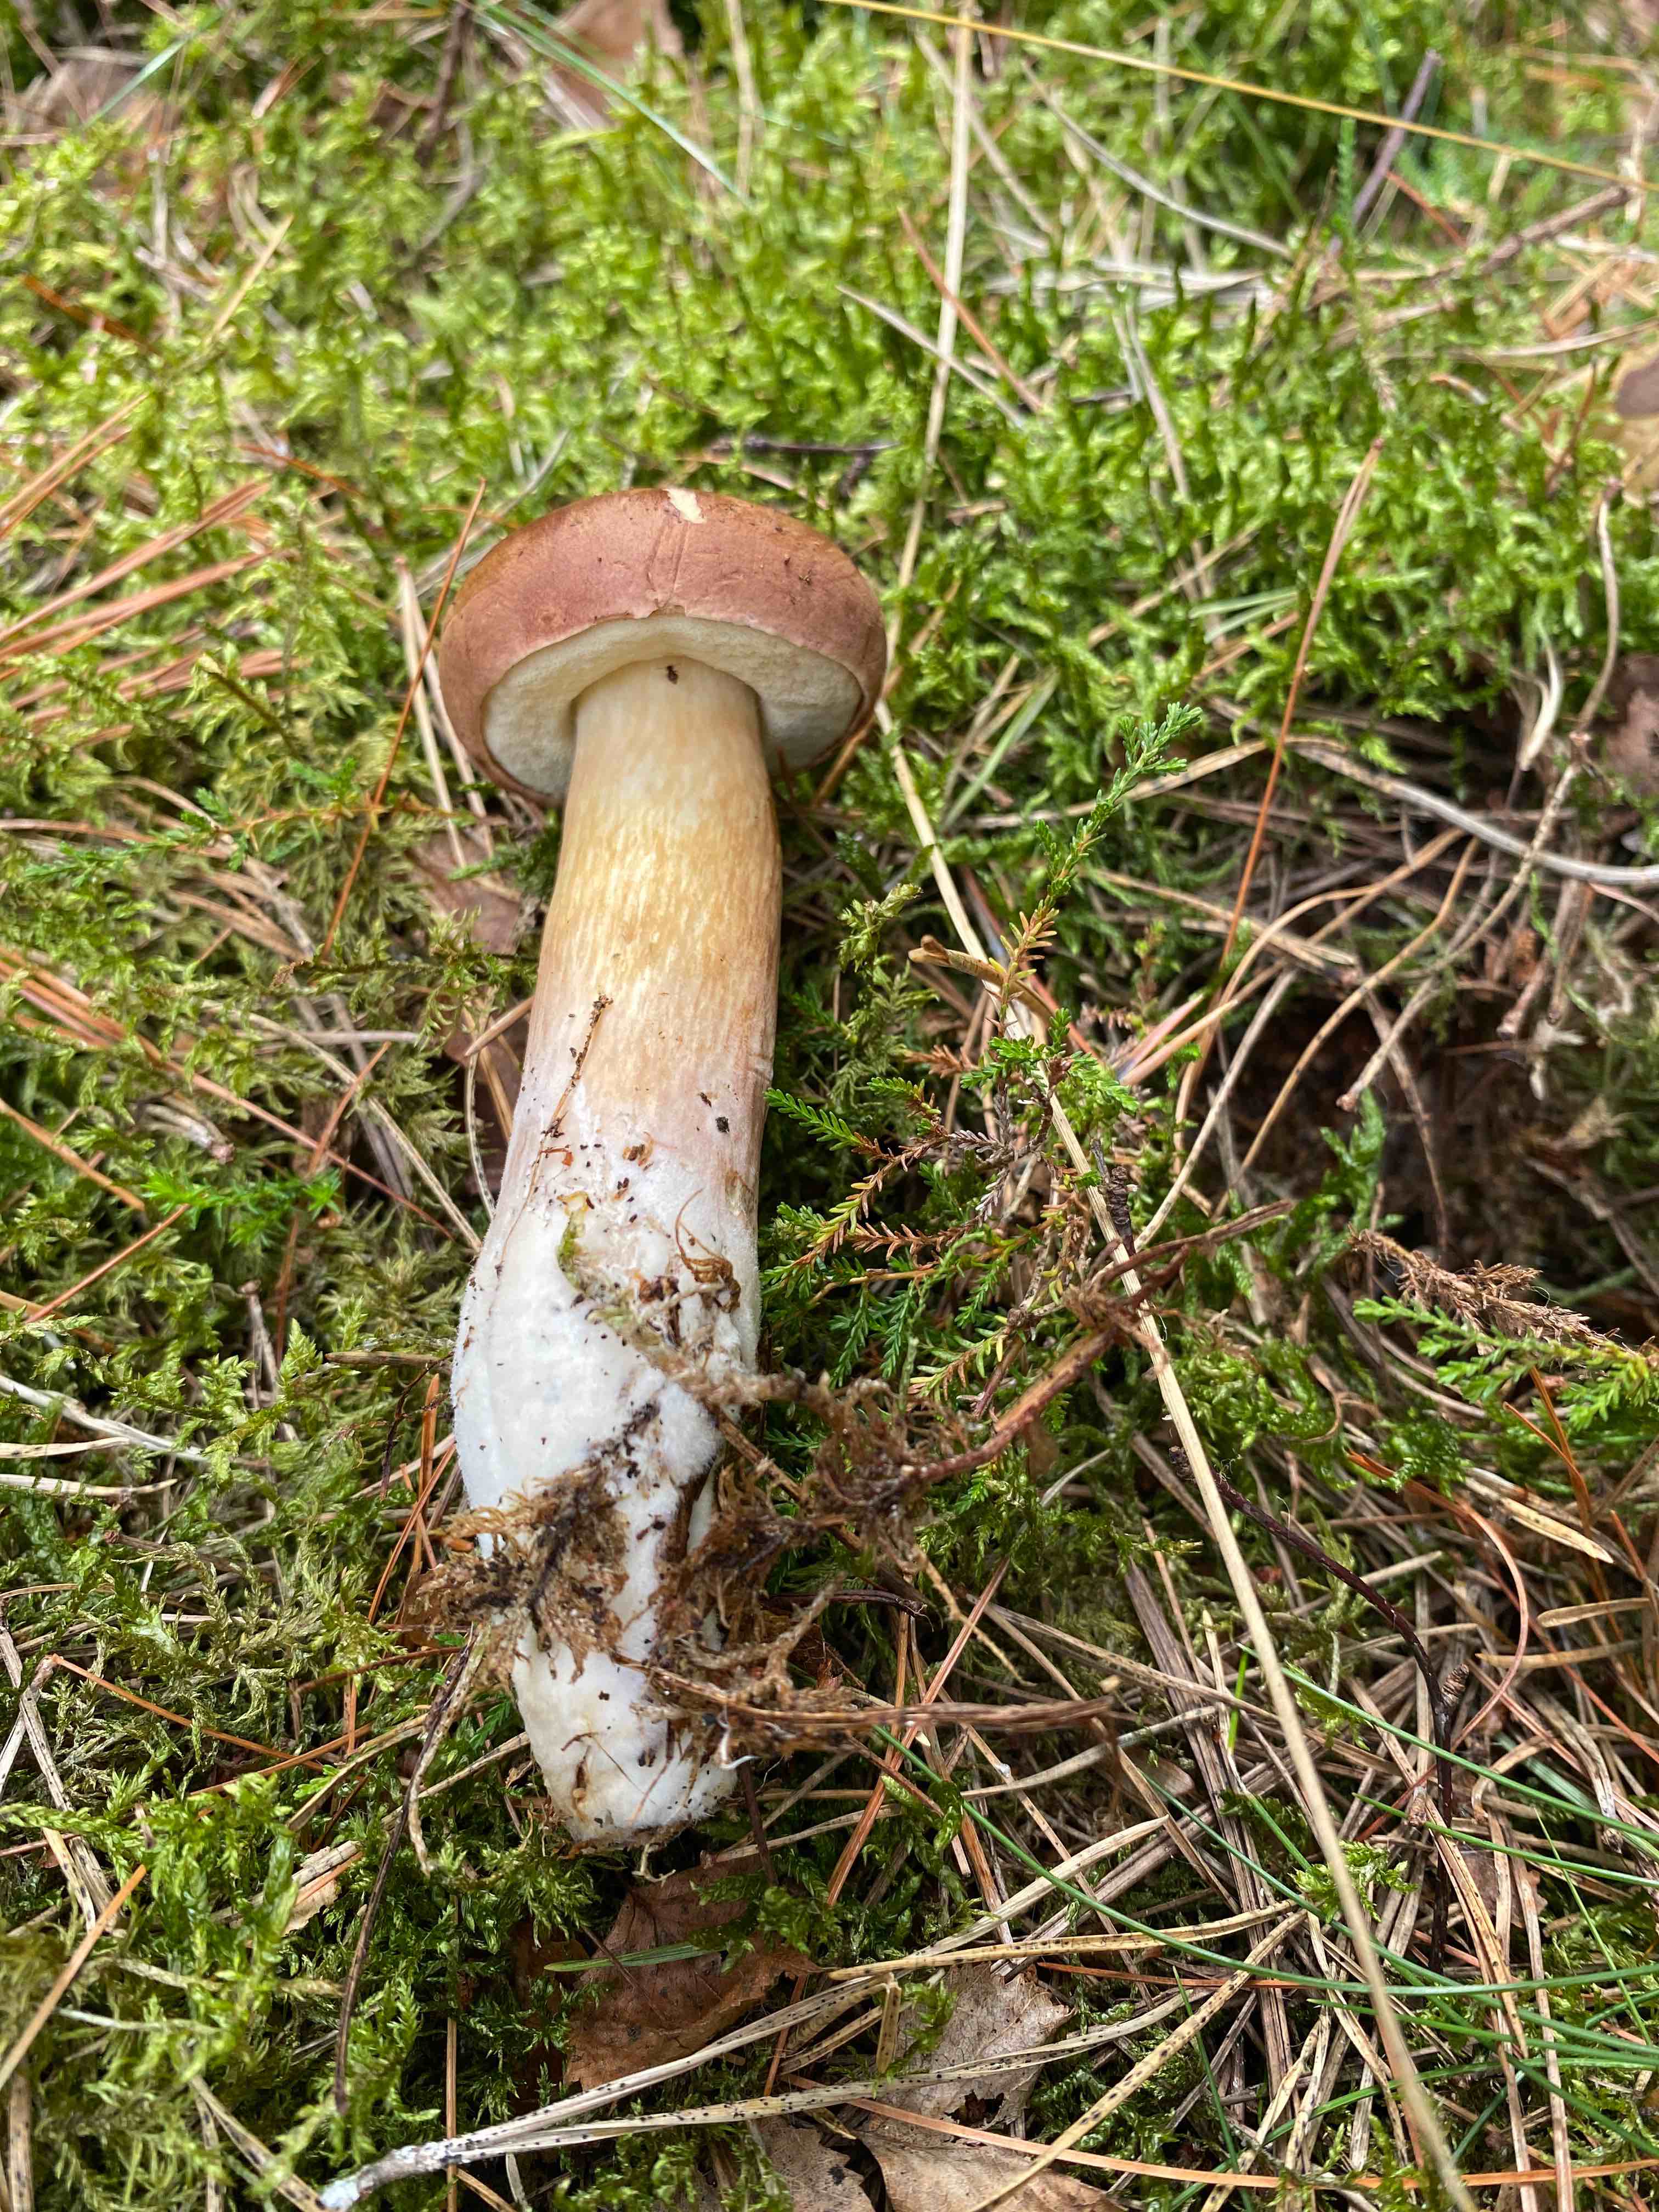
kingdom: Fungi
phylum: Basidiomycota
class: Agaricomycetes
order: Boletales
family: Boletaceae
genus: Imleria
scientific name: Imleria badia
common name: brunstokket rørhat
